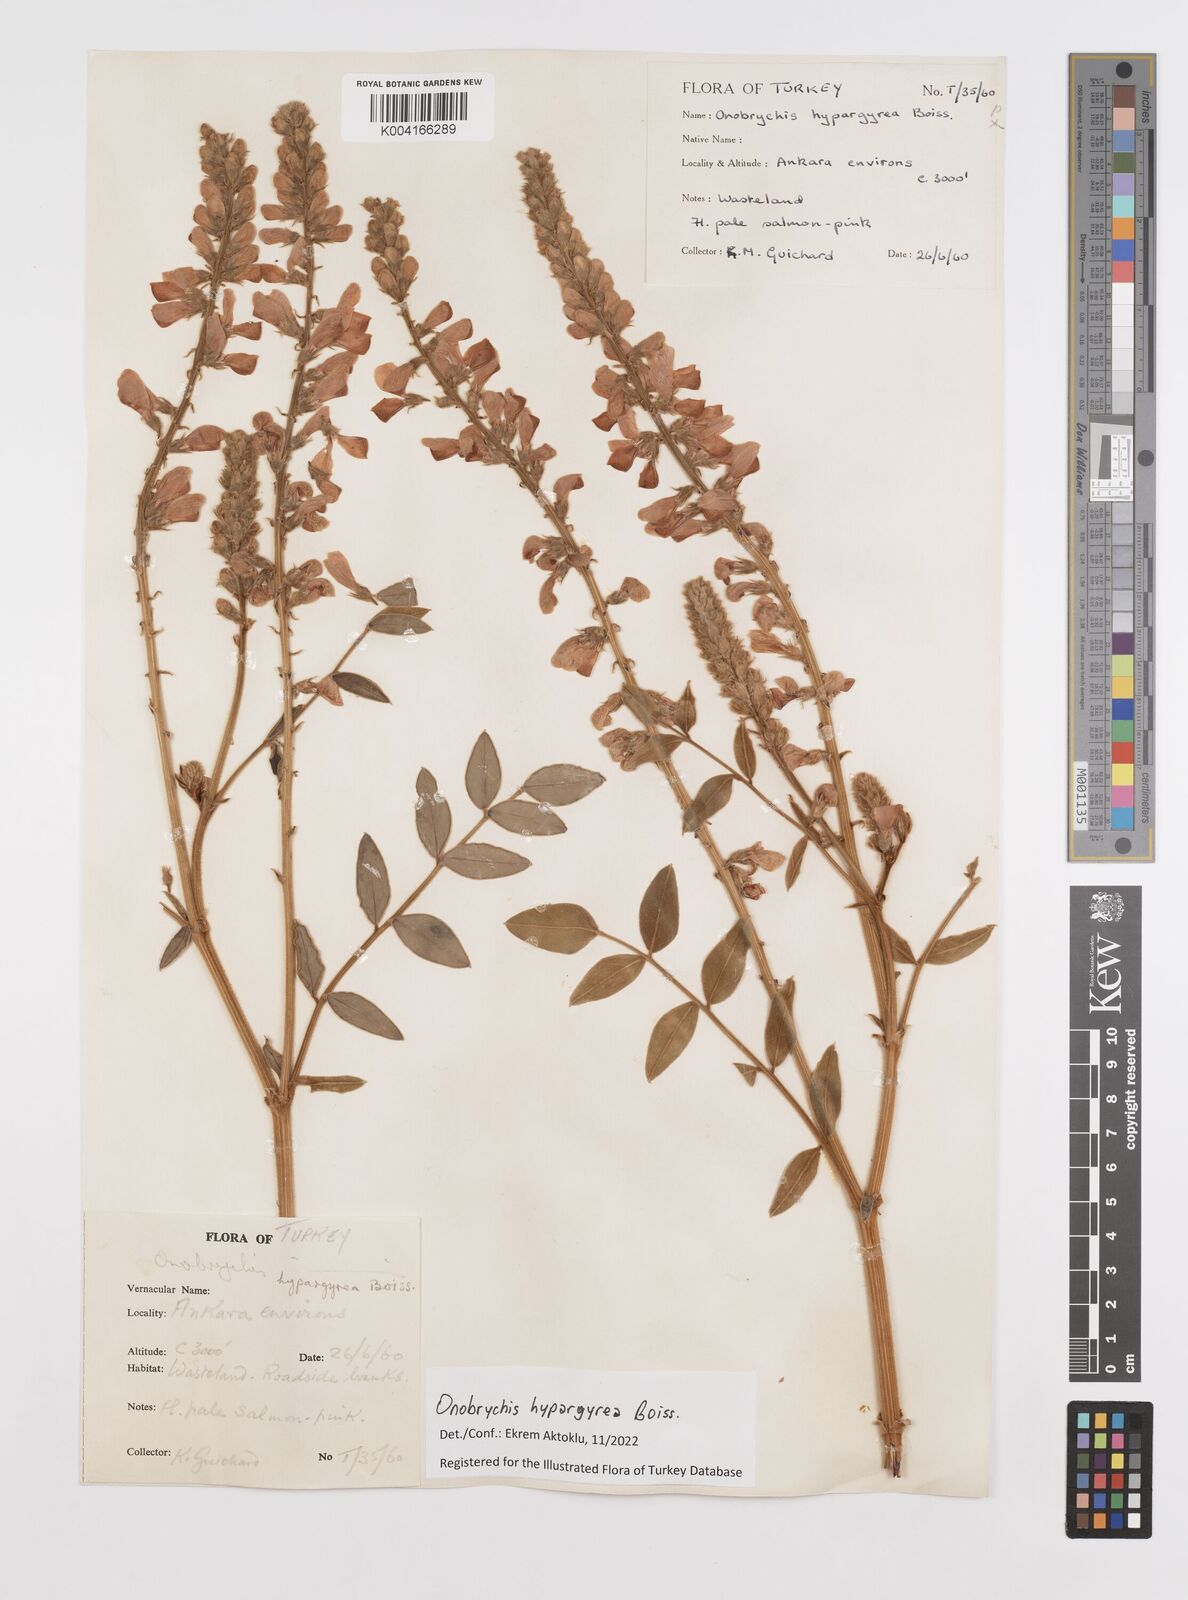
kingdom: Plantae
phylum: Tracheophyta
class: Magnoliopsida
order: Fabales
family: Fabaceae
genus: Onobrychis
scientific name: Onobrychis hypargyrea
